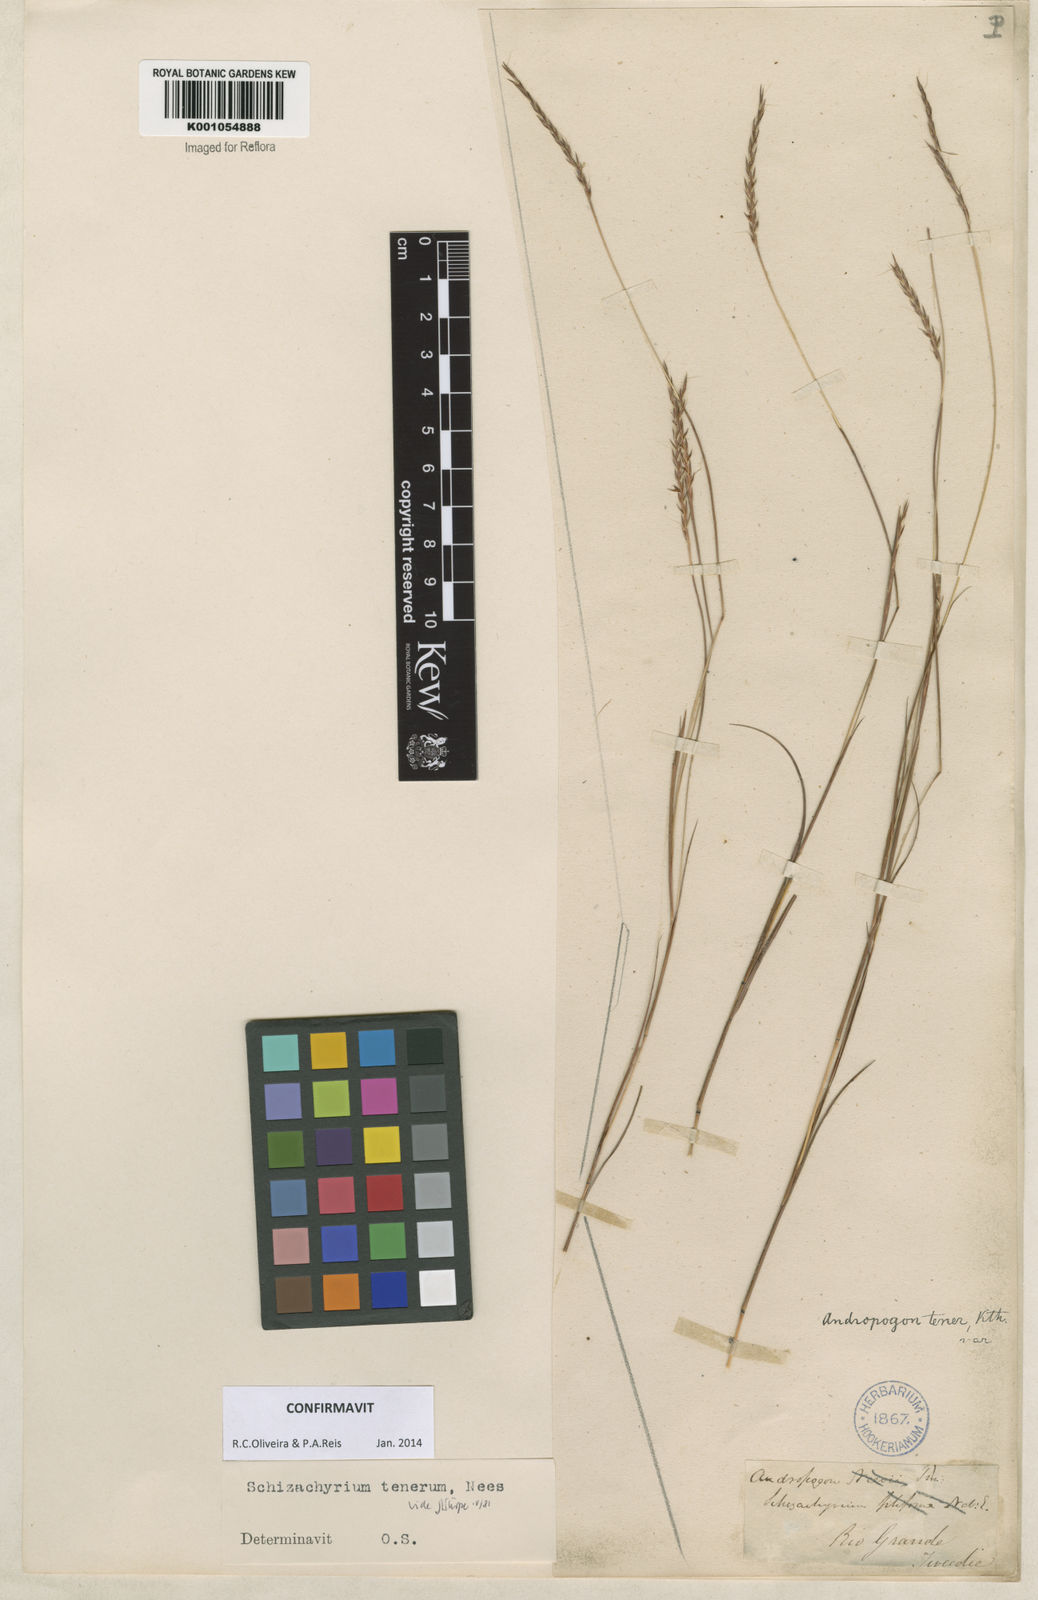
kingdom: Plantae
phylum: Tracheophyta
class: Liliopsida
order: Poales
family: Poaceae
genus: Andropogon
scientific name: Andropogon tener
